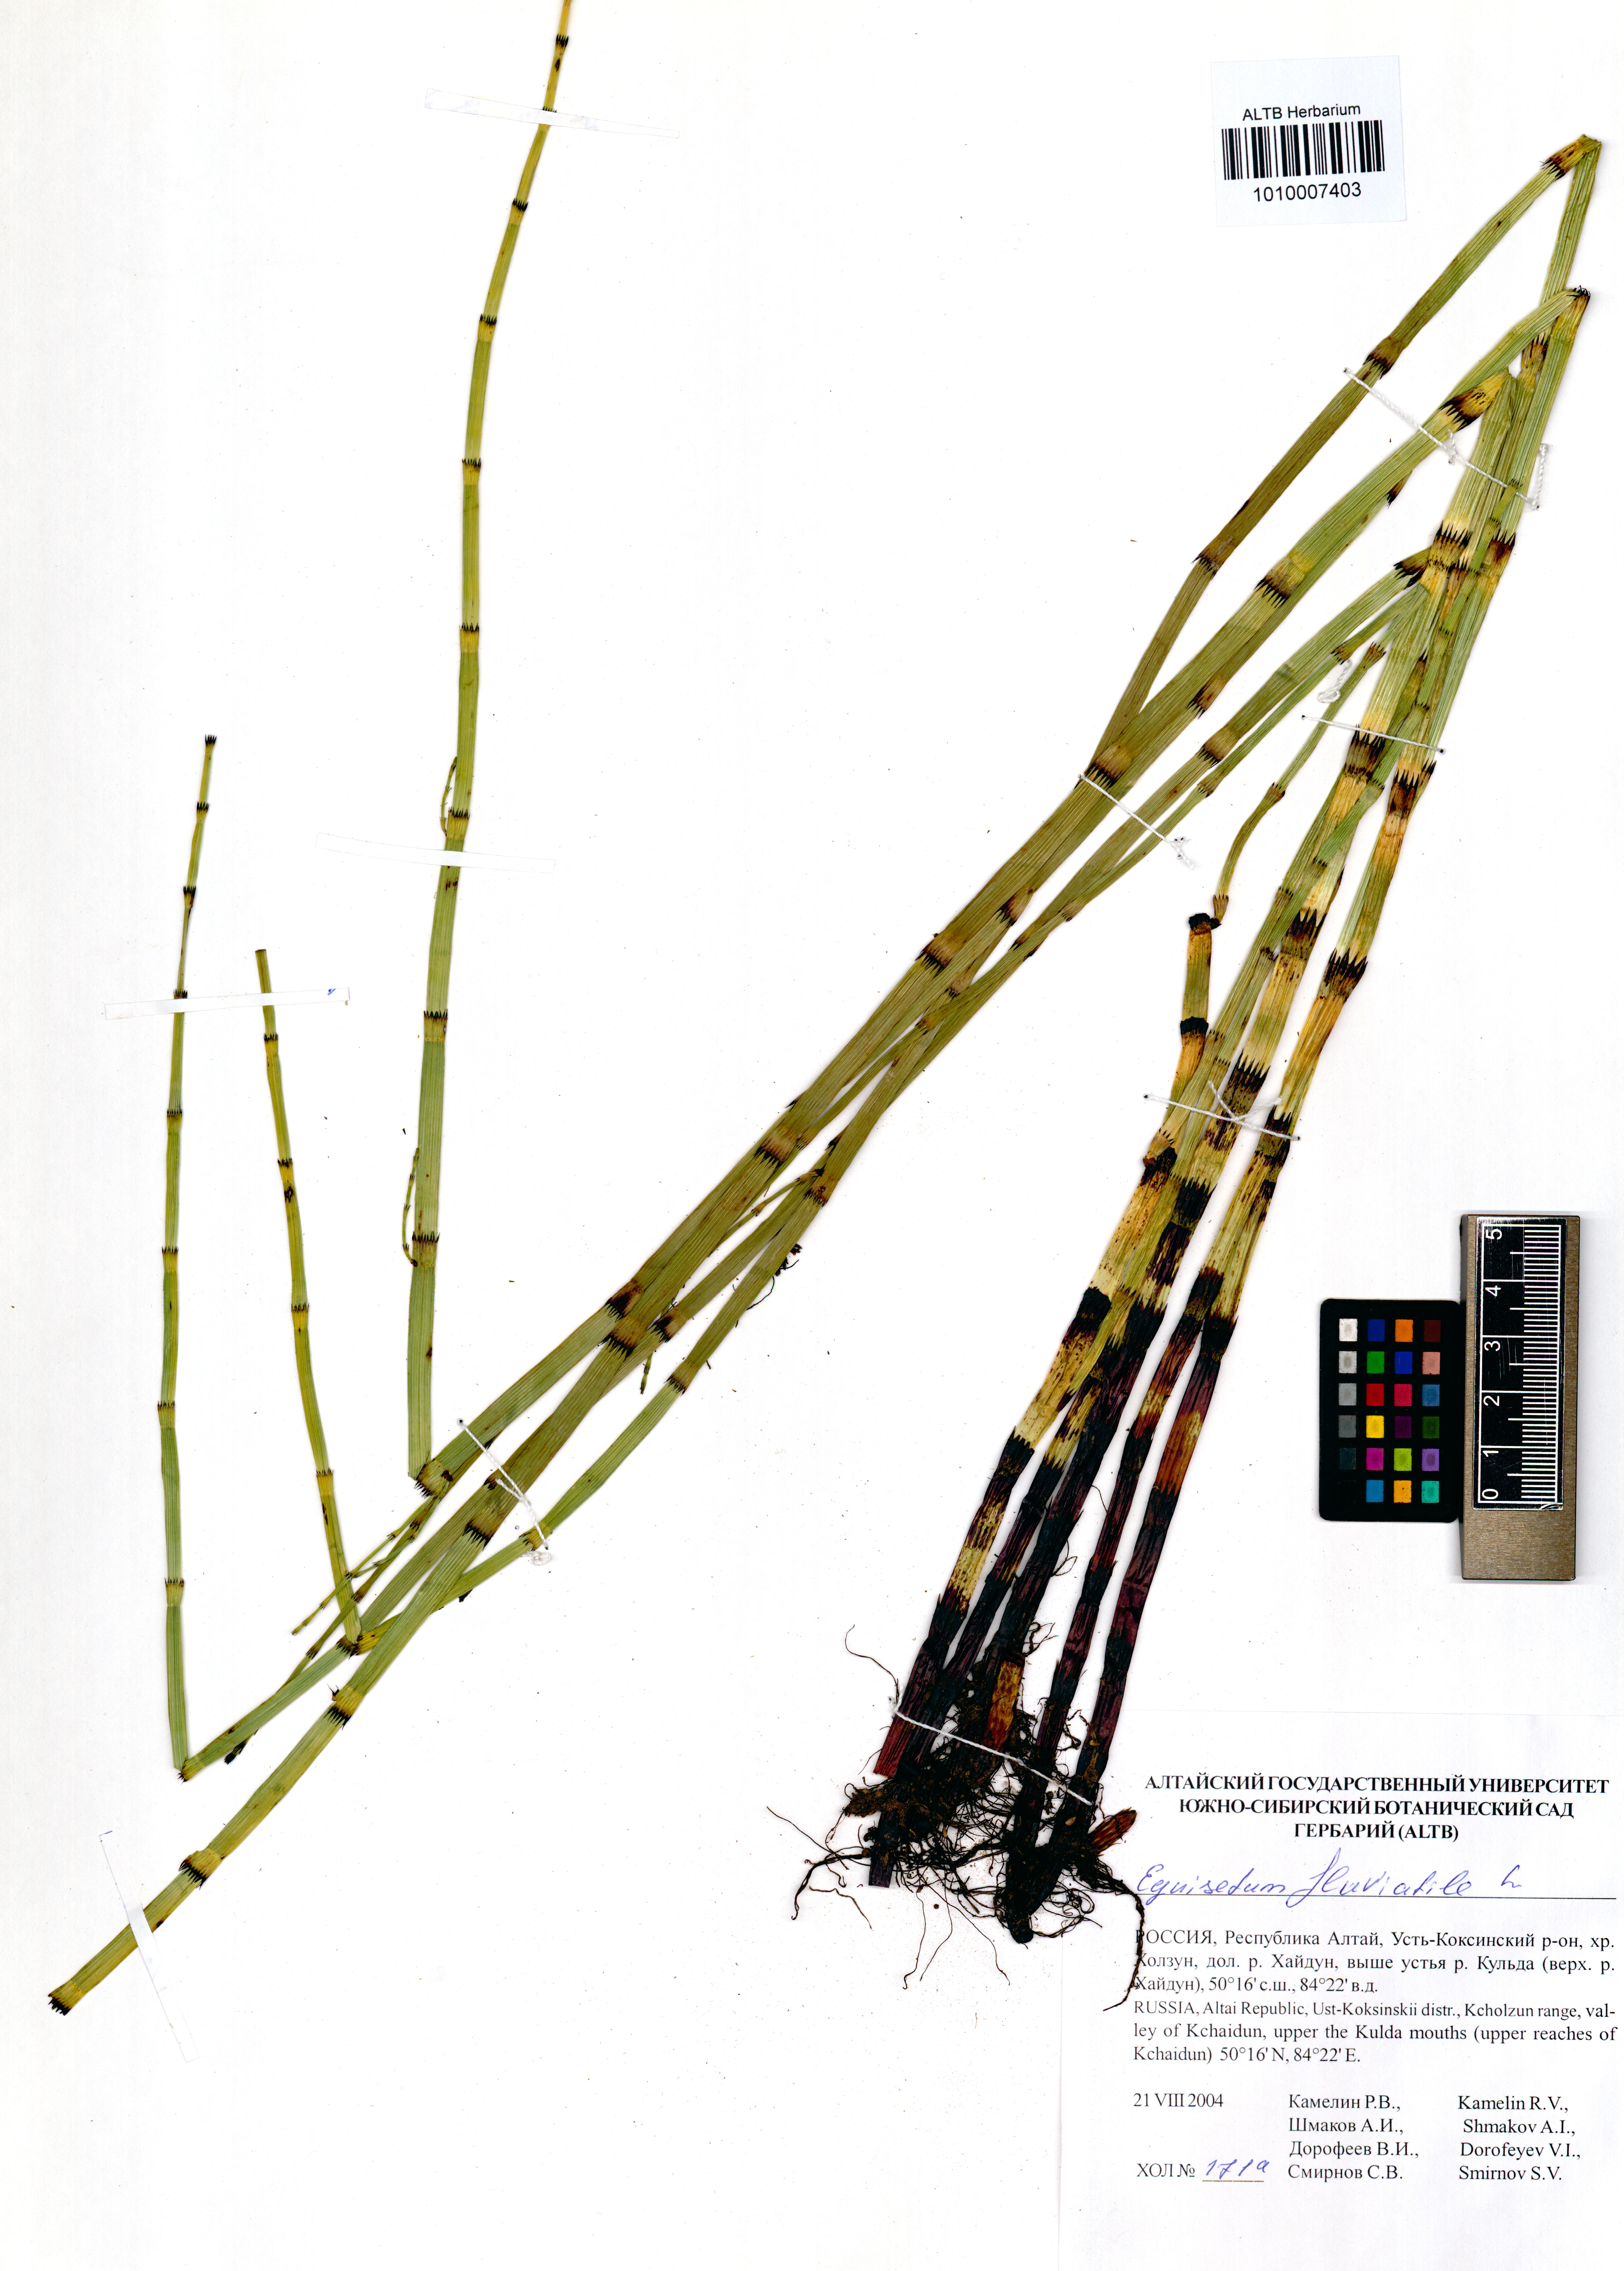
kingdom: Plantae
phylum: Tracheophyta
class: Polypodiopsida
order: Equisetales
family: Equisetaceae
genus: Equisetum
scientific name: Equisetum fluviatile
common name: Water horsetail
